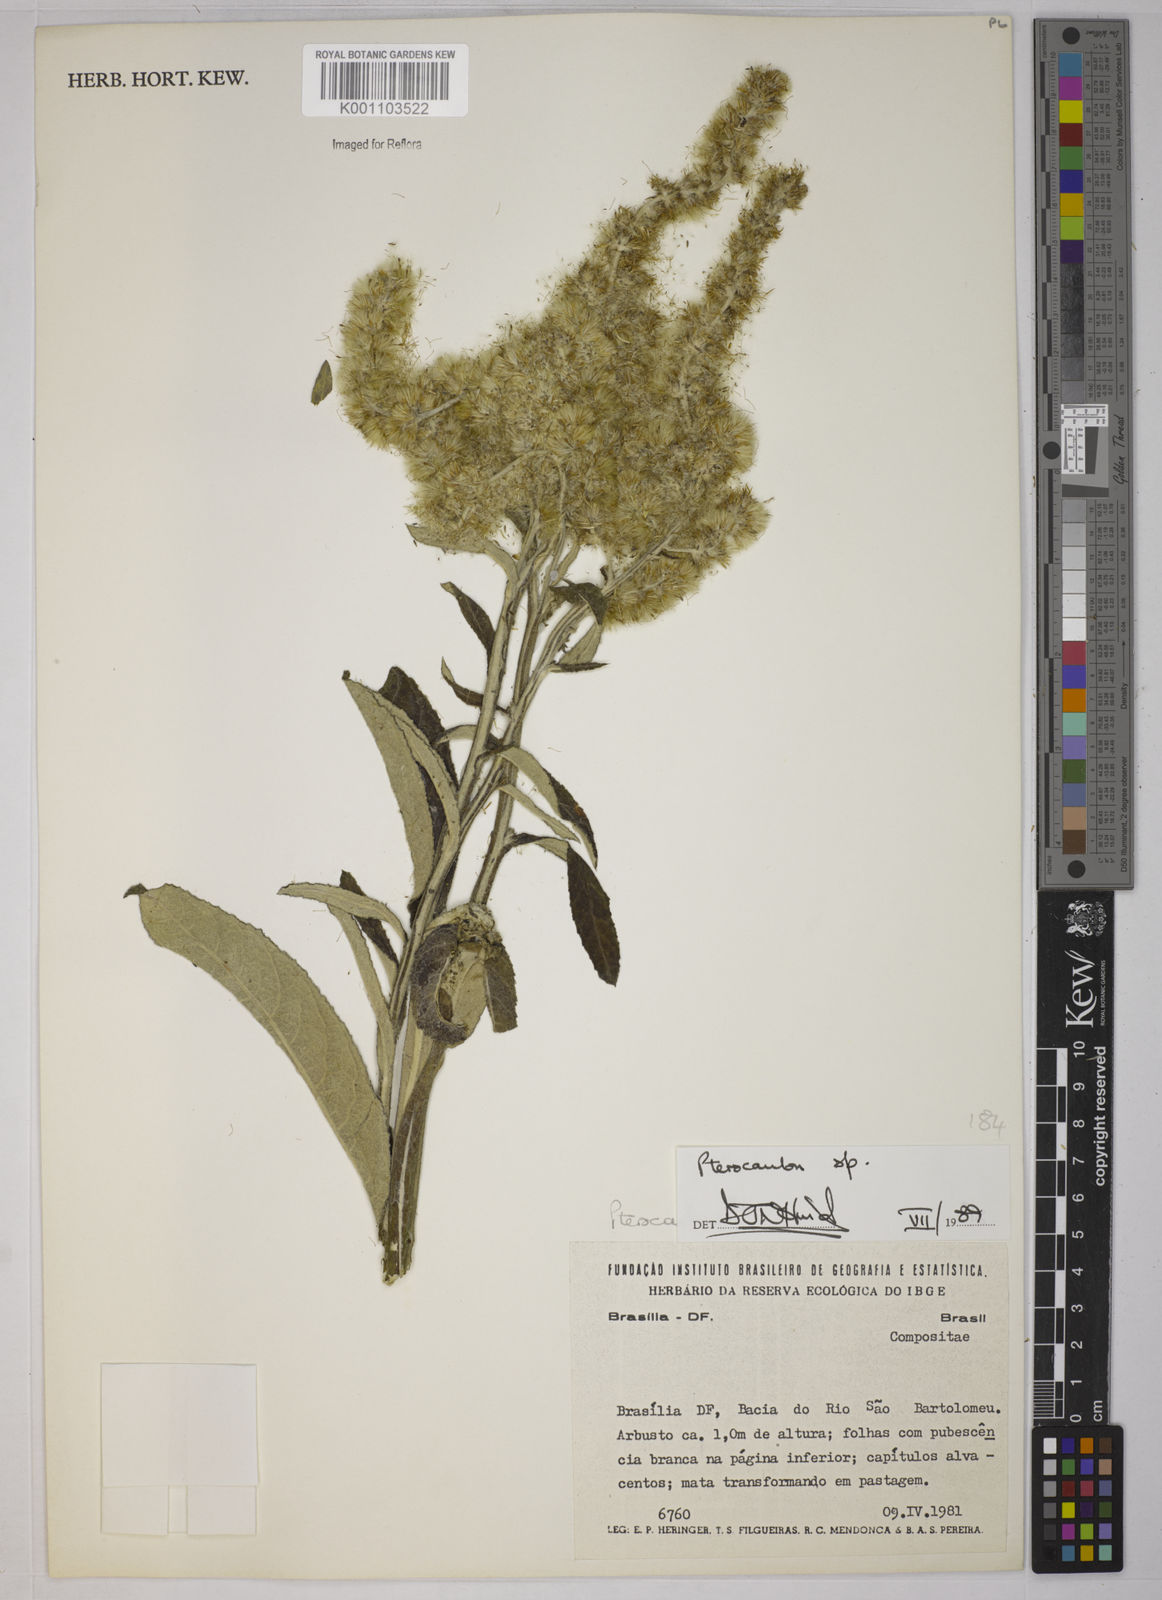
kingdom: Plantae
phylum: Tracheophyta
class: Magnoliopsida
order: Asterales
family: Asteraceae
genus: Pterocaulon
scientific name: Pterocaulon
